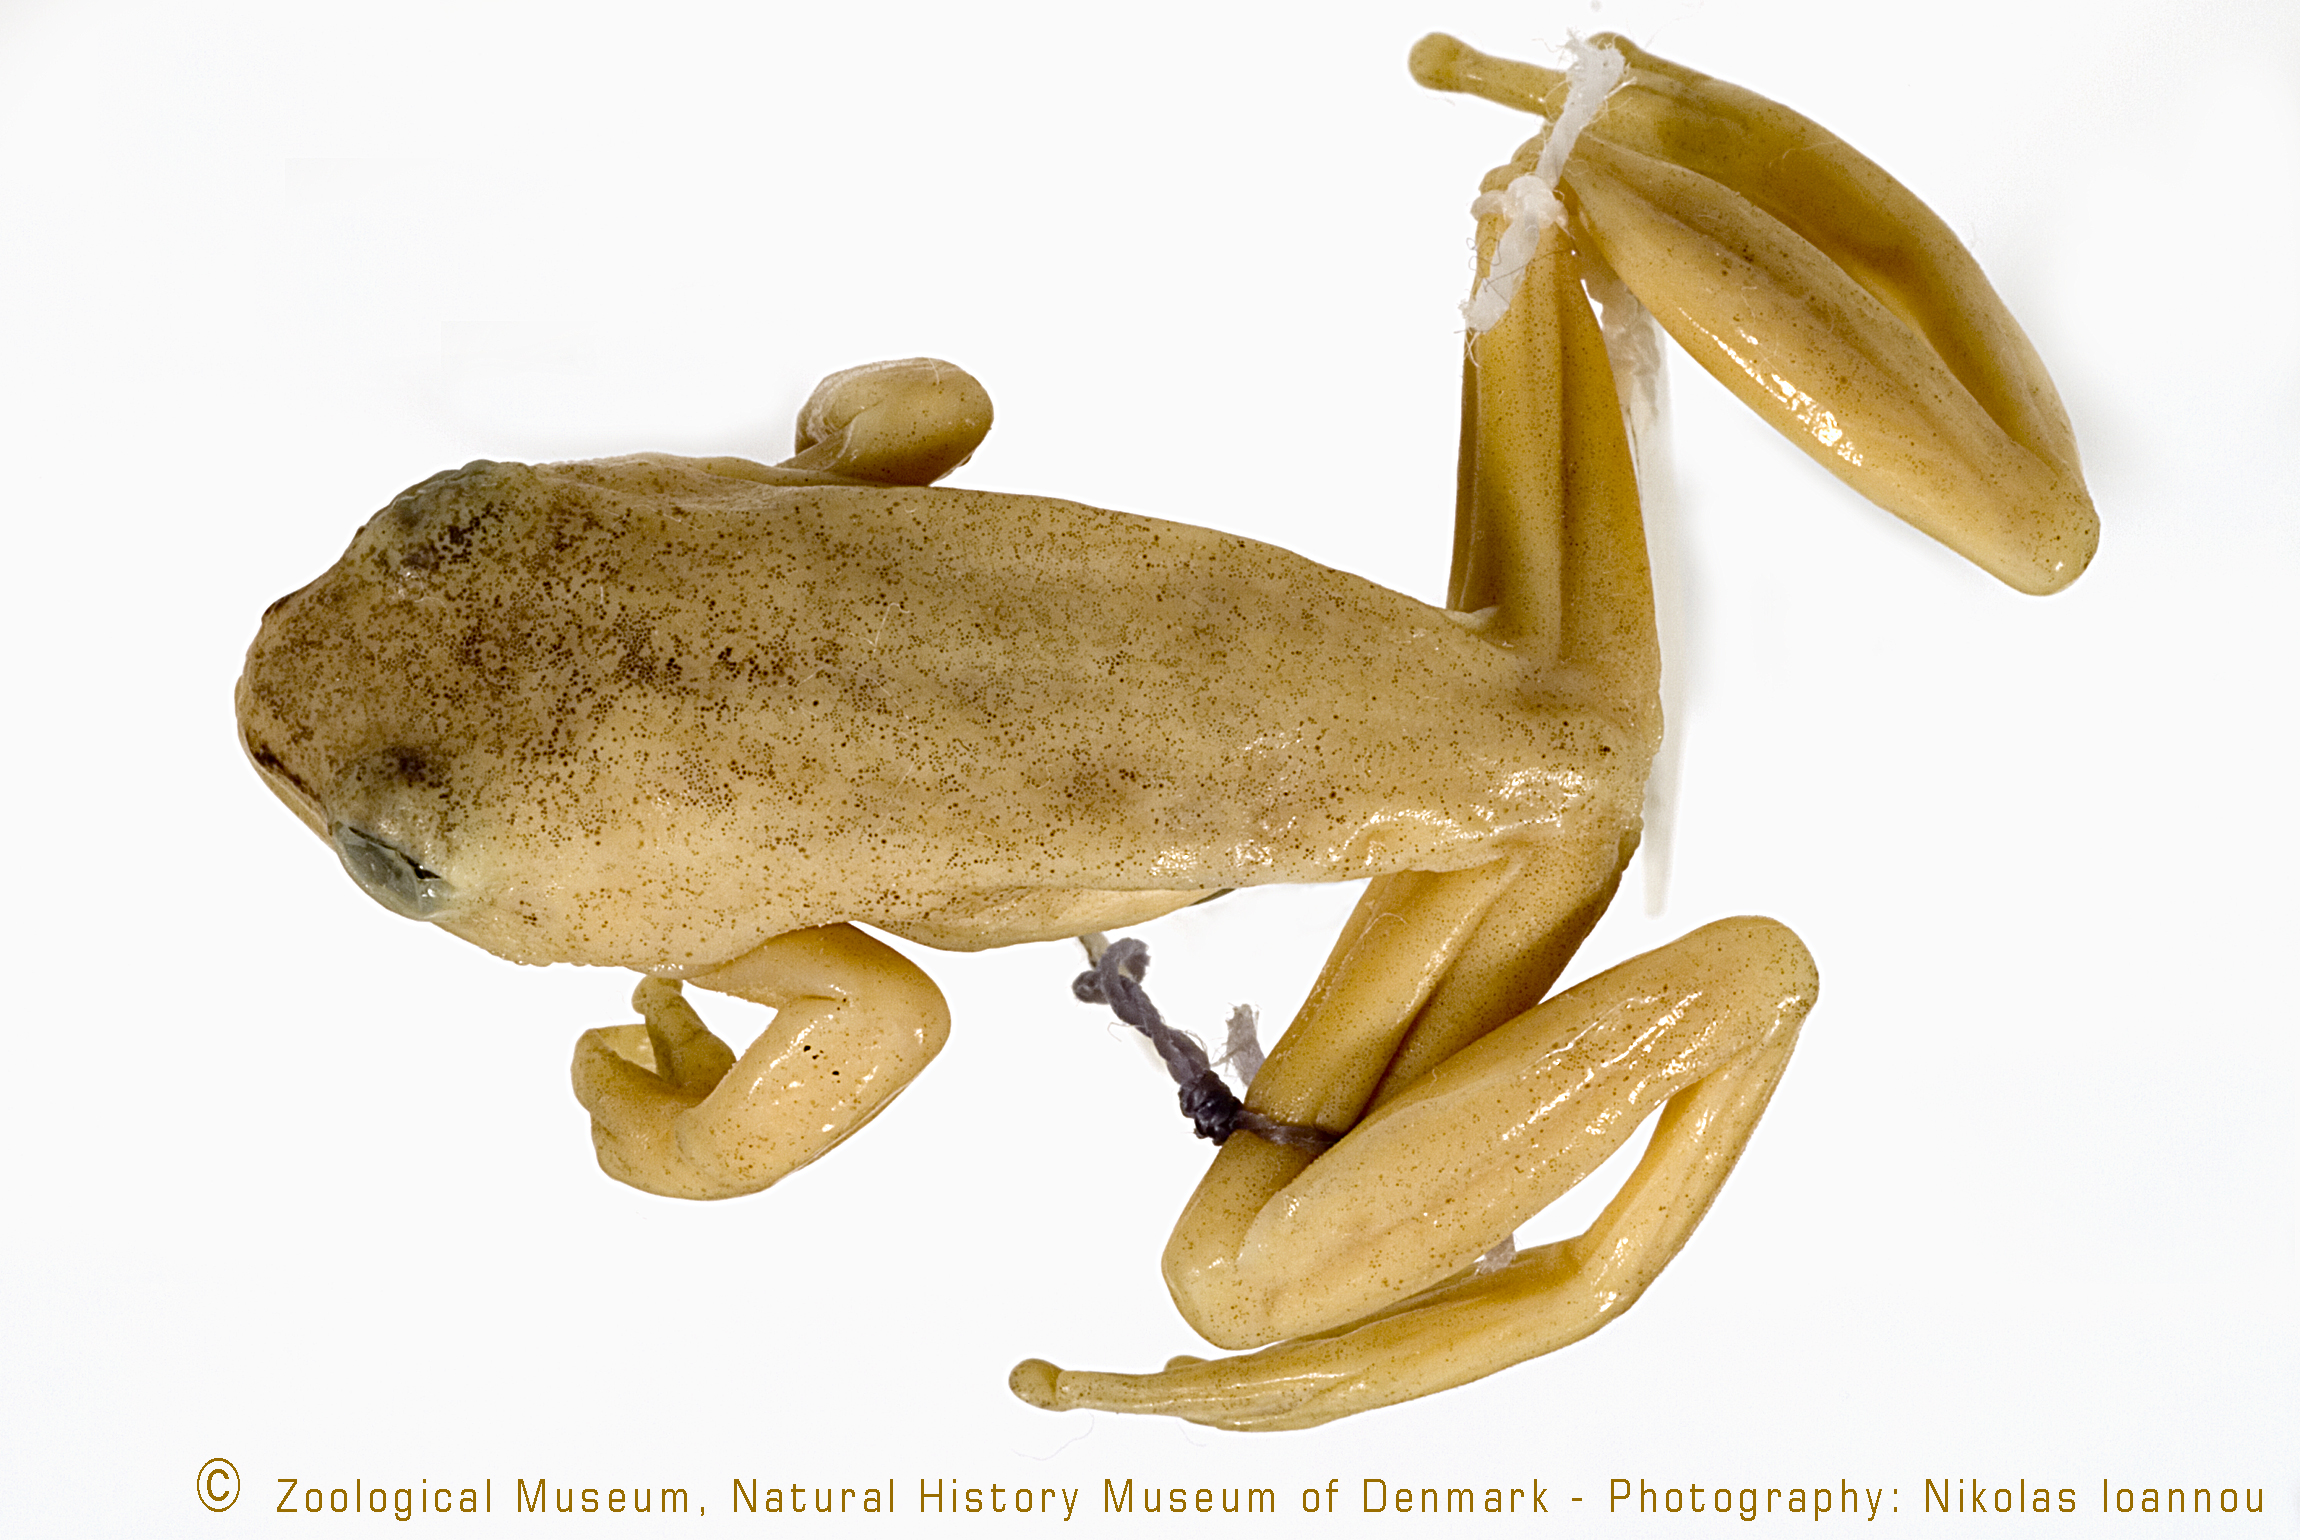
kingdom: Animalia
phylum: Chordata
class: Amphibia
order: Anura
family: Hyperoliidae
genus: Hyperolius
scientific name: Hyperolius pseudargus
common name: Mette's reed frog
